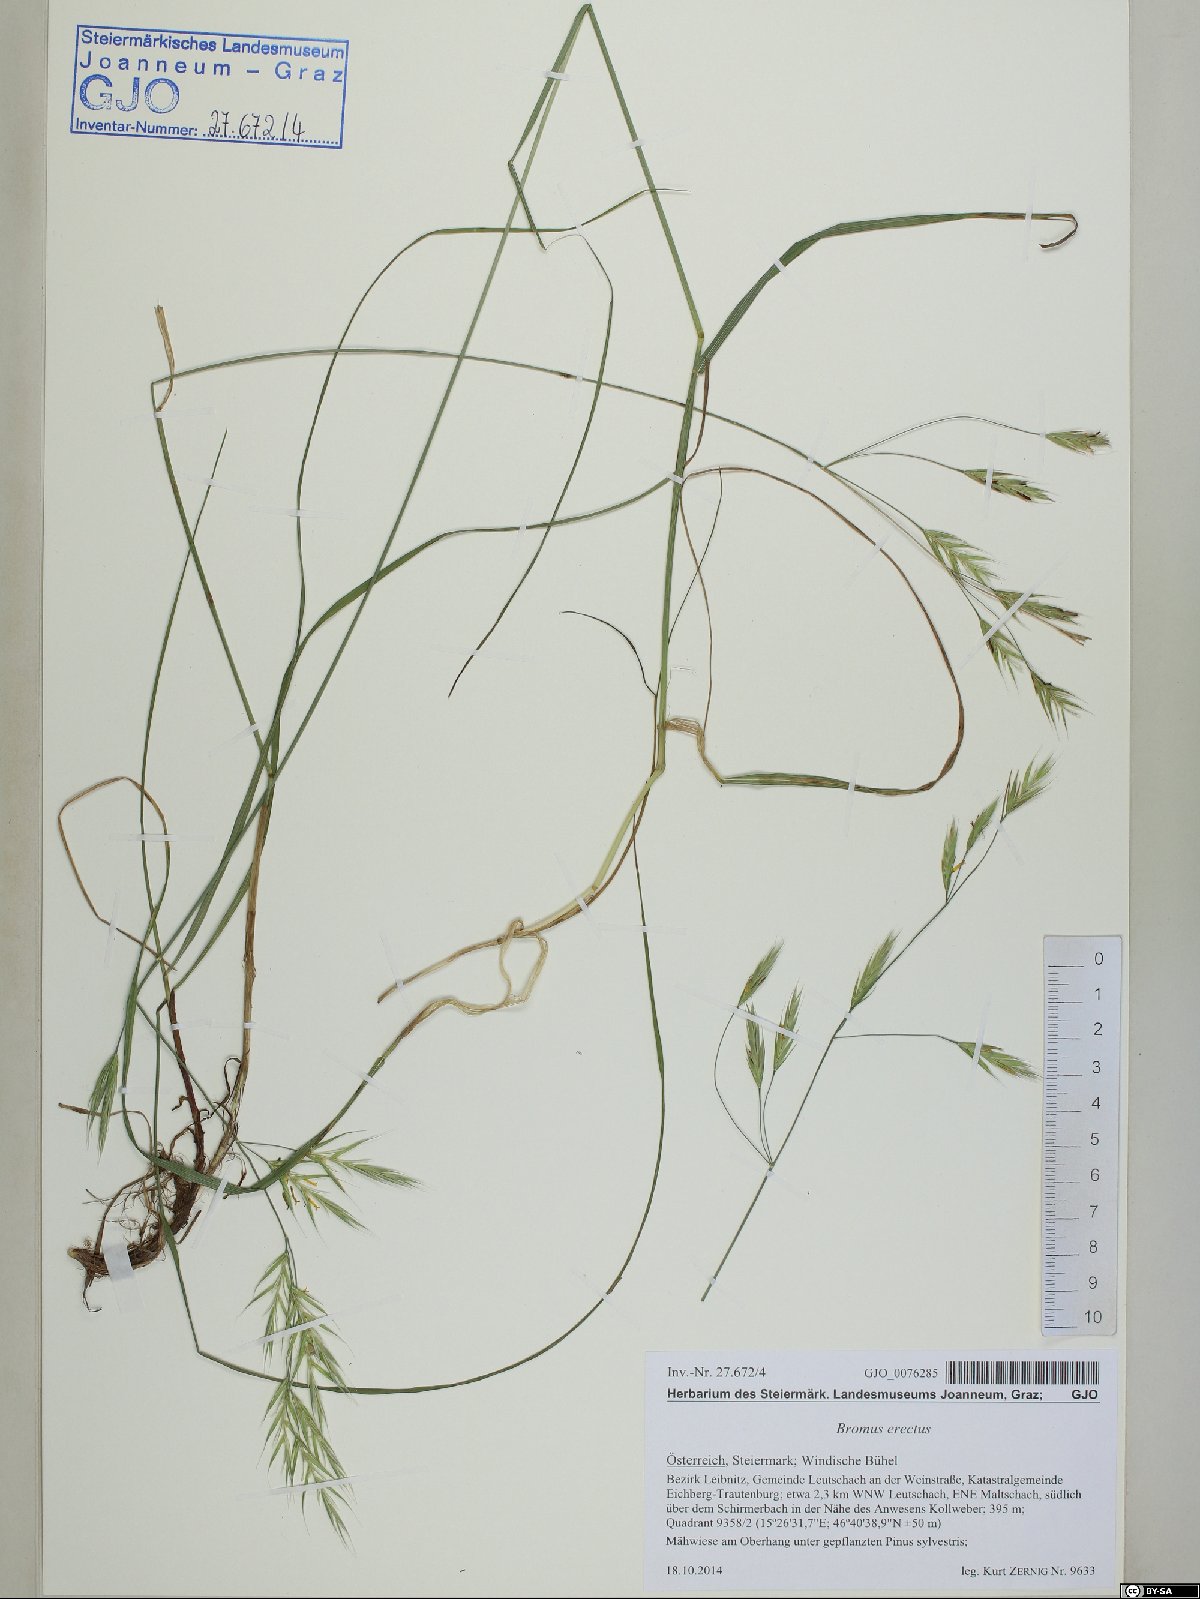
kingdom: Plantae
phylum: Tracheophyta
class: Liliopsida
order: Poales
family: Poaceae
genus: Bromus
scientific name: Bromus erectus
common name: Erect brome
